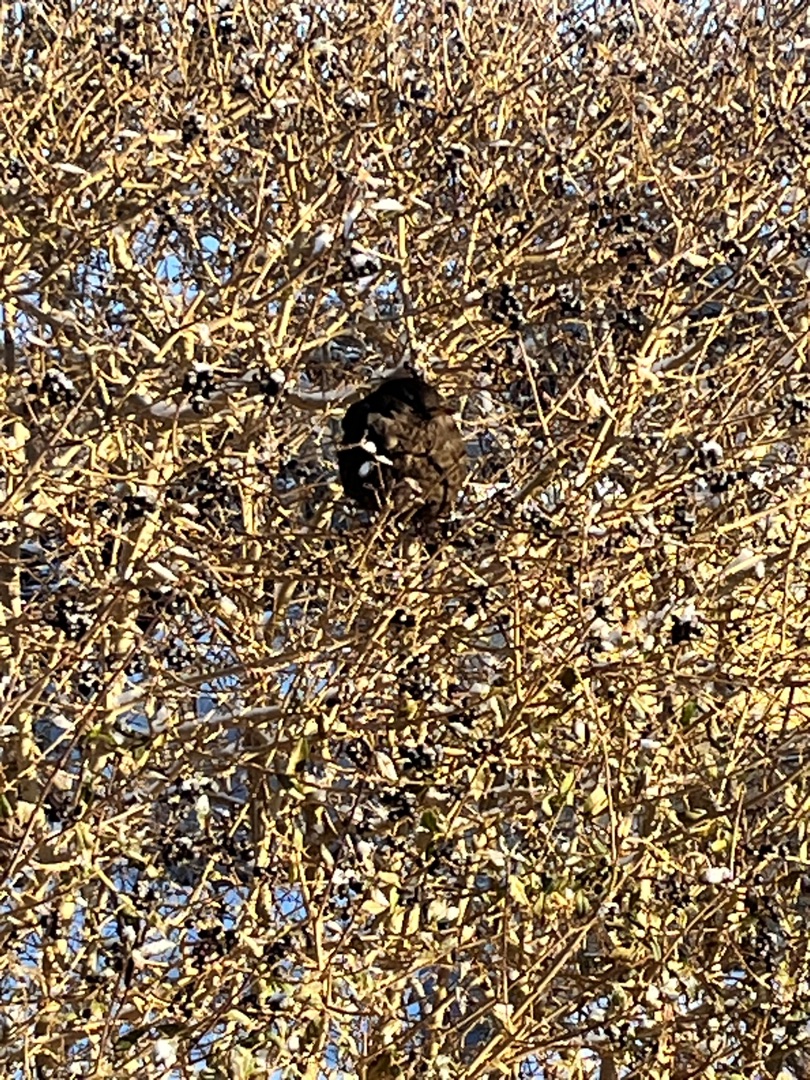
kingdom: Animalia
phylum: Chordata
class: Aves
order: Passeriformes
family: Turdidae
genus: Turdus
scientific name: Turdus merula
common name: Solsort
